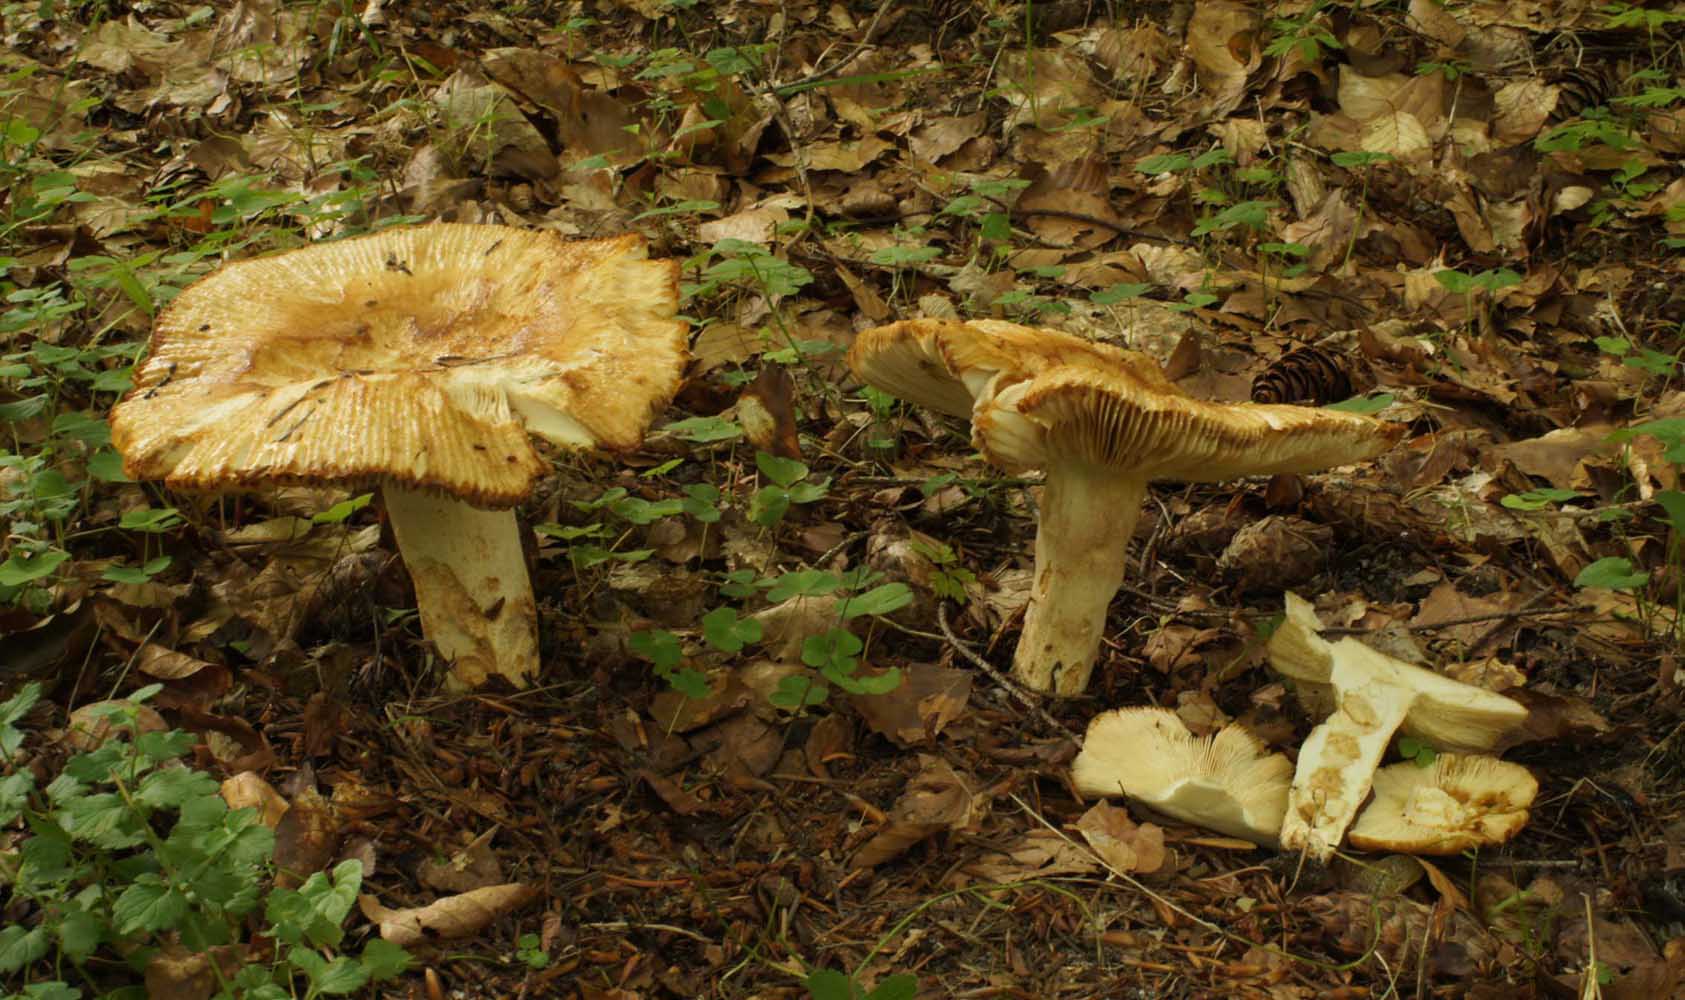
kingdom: Fungi
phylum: Basidiomycota
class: Agaricomycetes
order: Russulales
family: Russulaceae
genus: Russula
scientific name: Russula foetens
